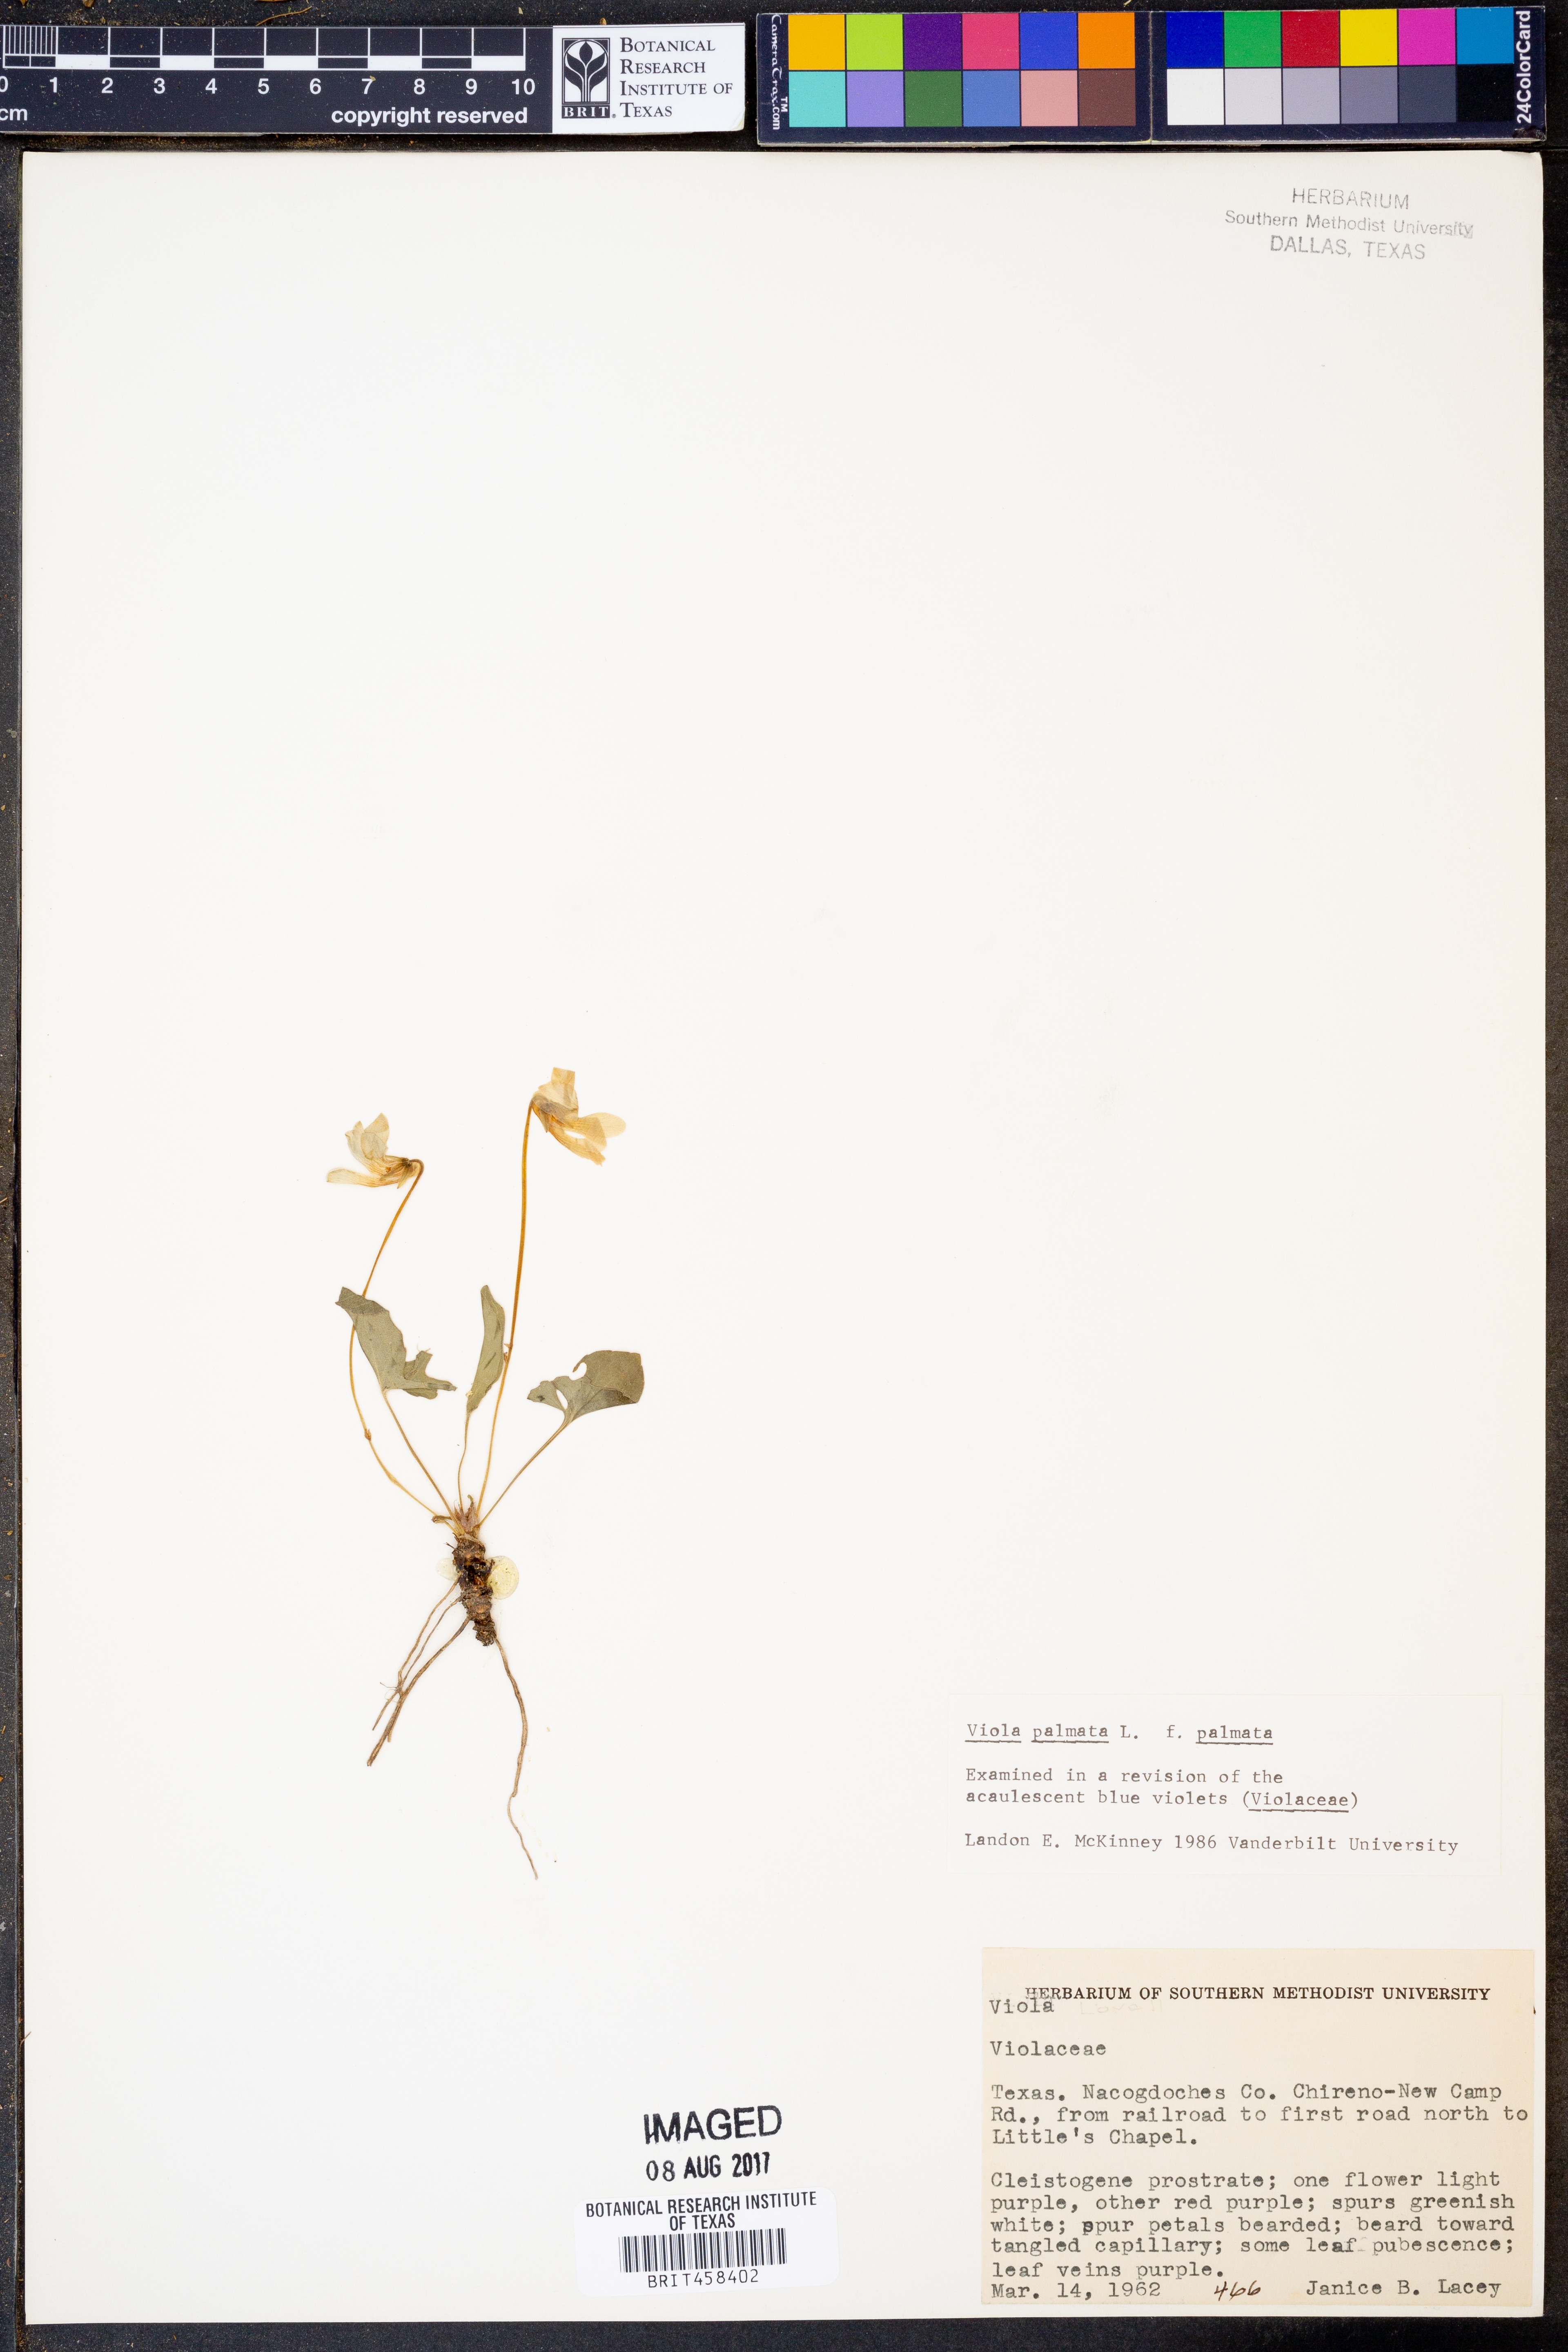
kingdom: Plantae
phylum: Tracheophyta
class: Magnoliopsida
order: Malpighiales
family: Violaceae
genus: Viola
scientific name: Viola palmata
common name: Early blue violet
